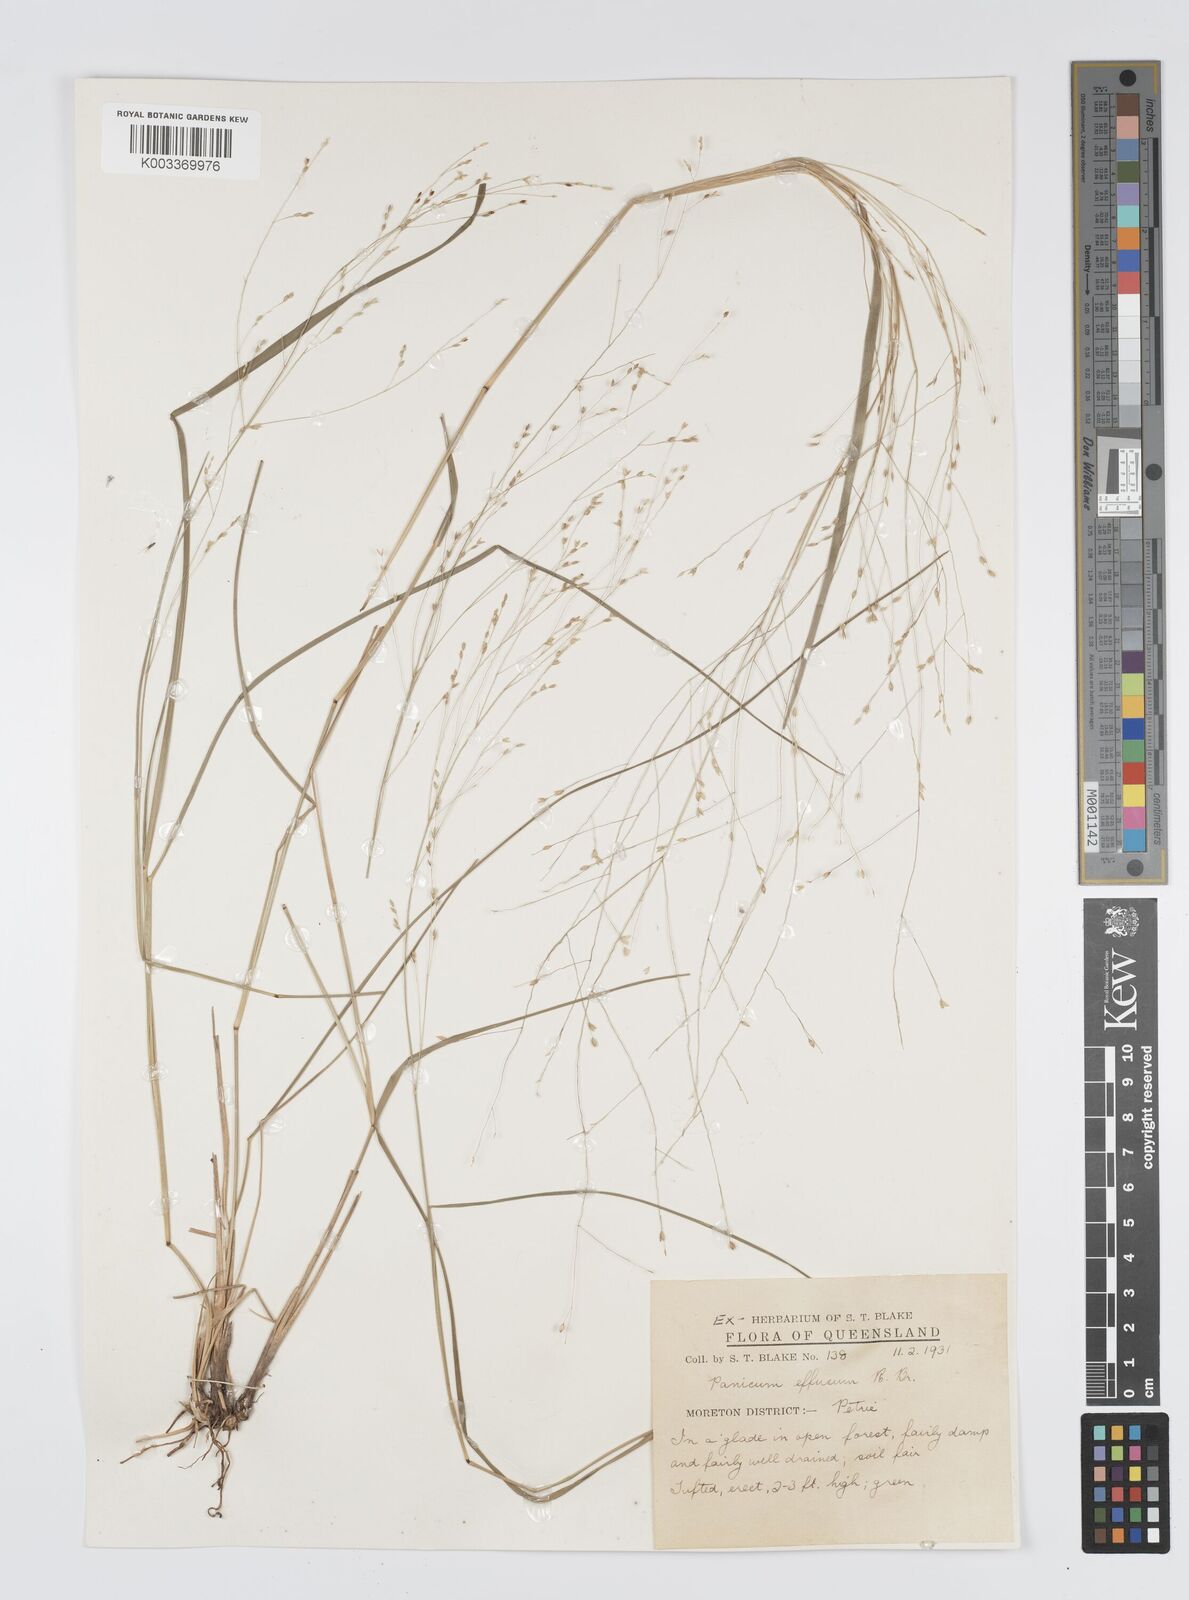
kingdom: Plantae
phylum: Tracheophyta
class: Liliopsida
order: Poales
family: Poaceae
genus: Panicum
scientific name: Panicum effusum
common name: Hairy panic grass
